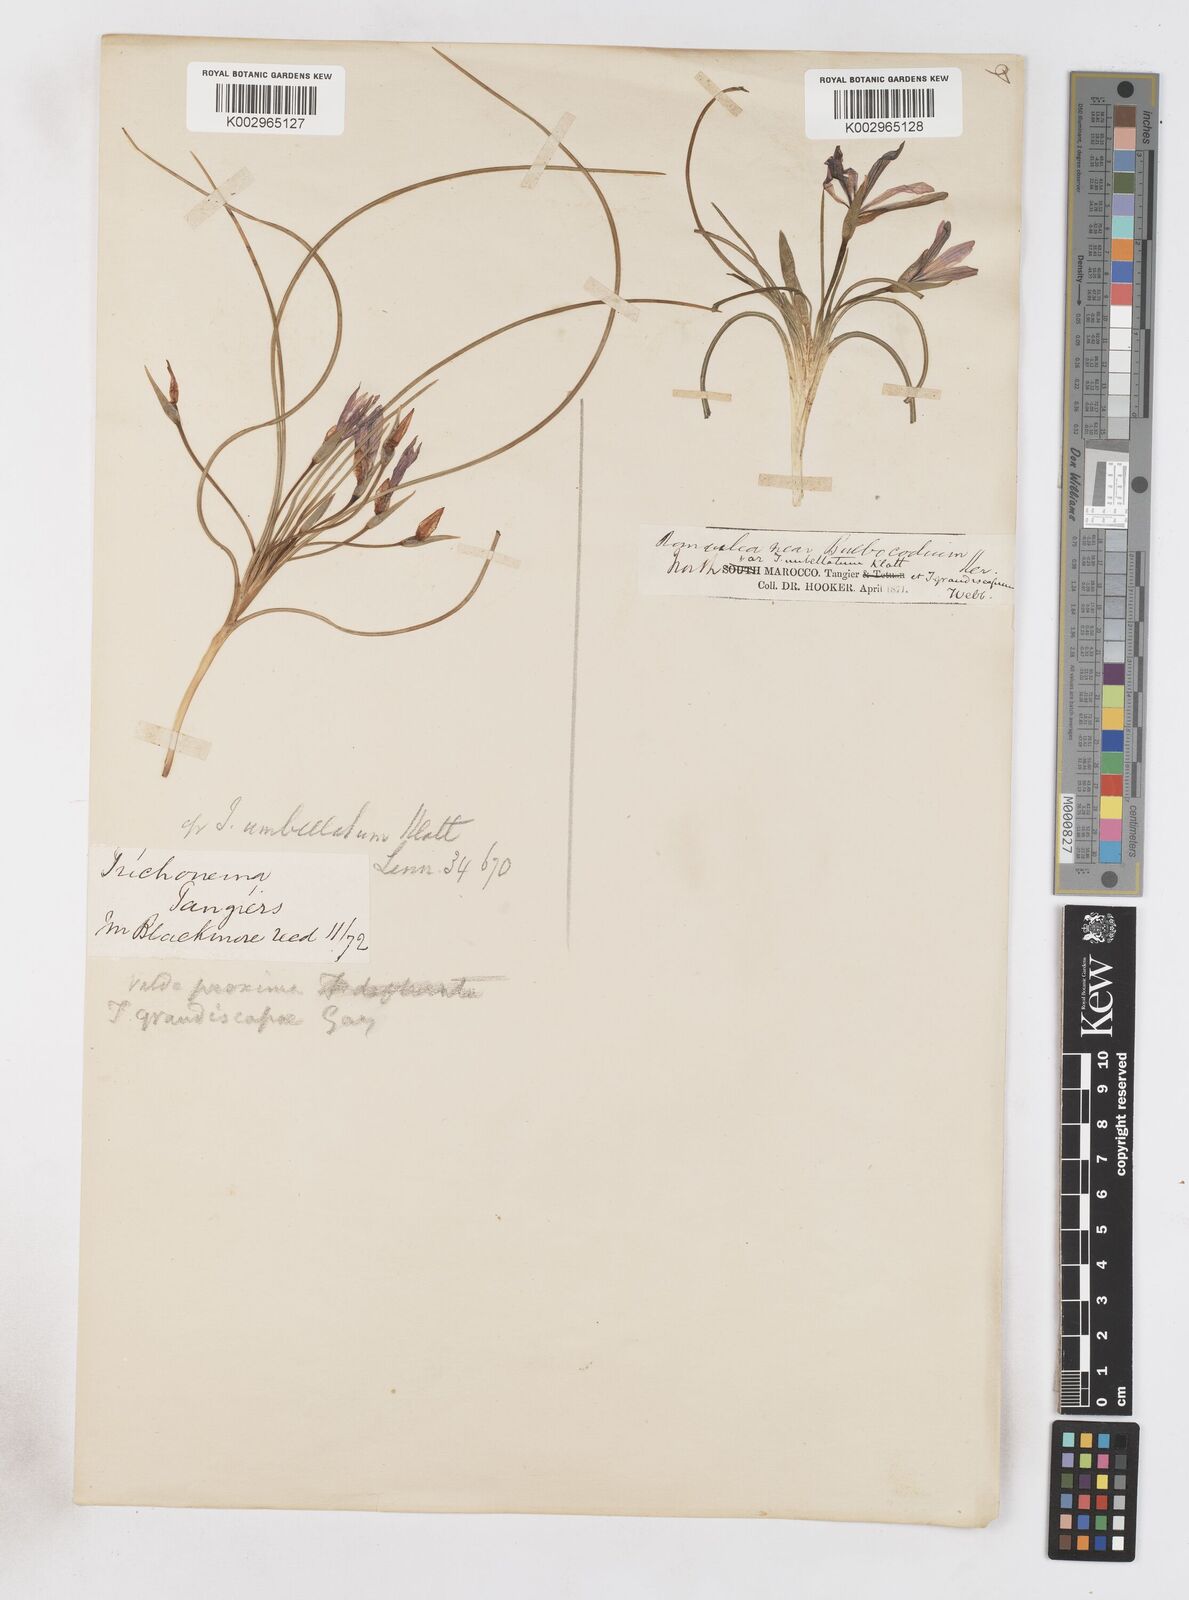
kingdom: Plantae
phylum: Tracheophyta
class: Liliopsida
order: Asparagales
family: Iridaceae
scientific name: Iridaceae
